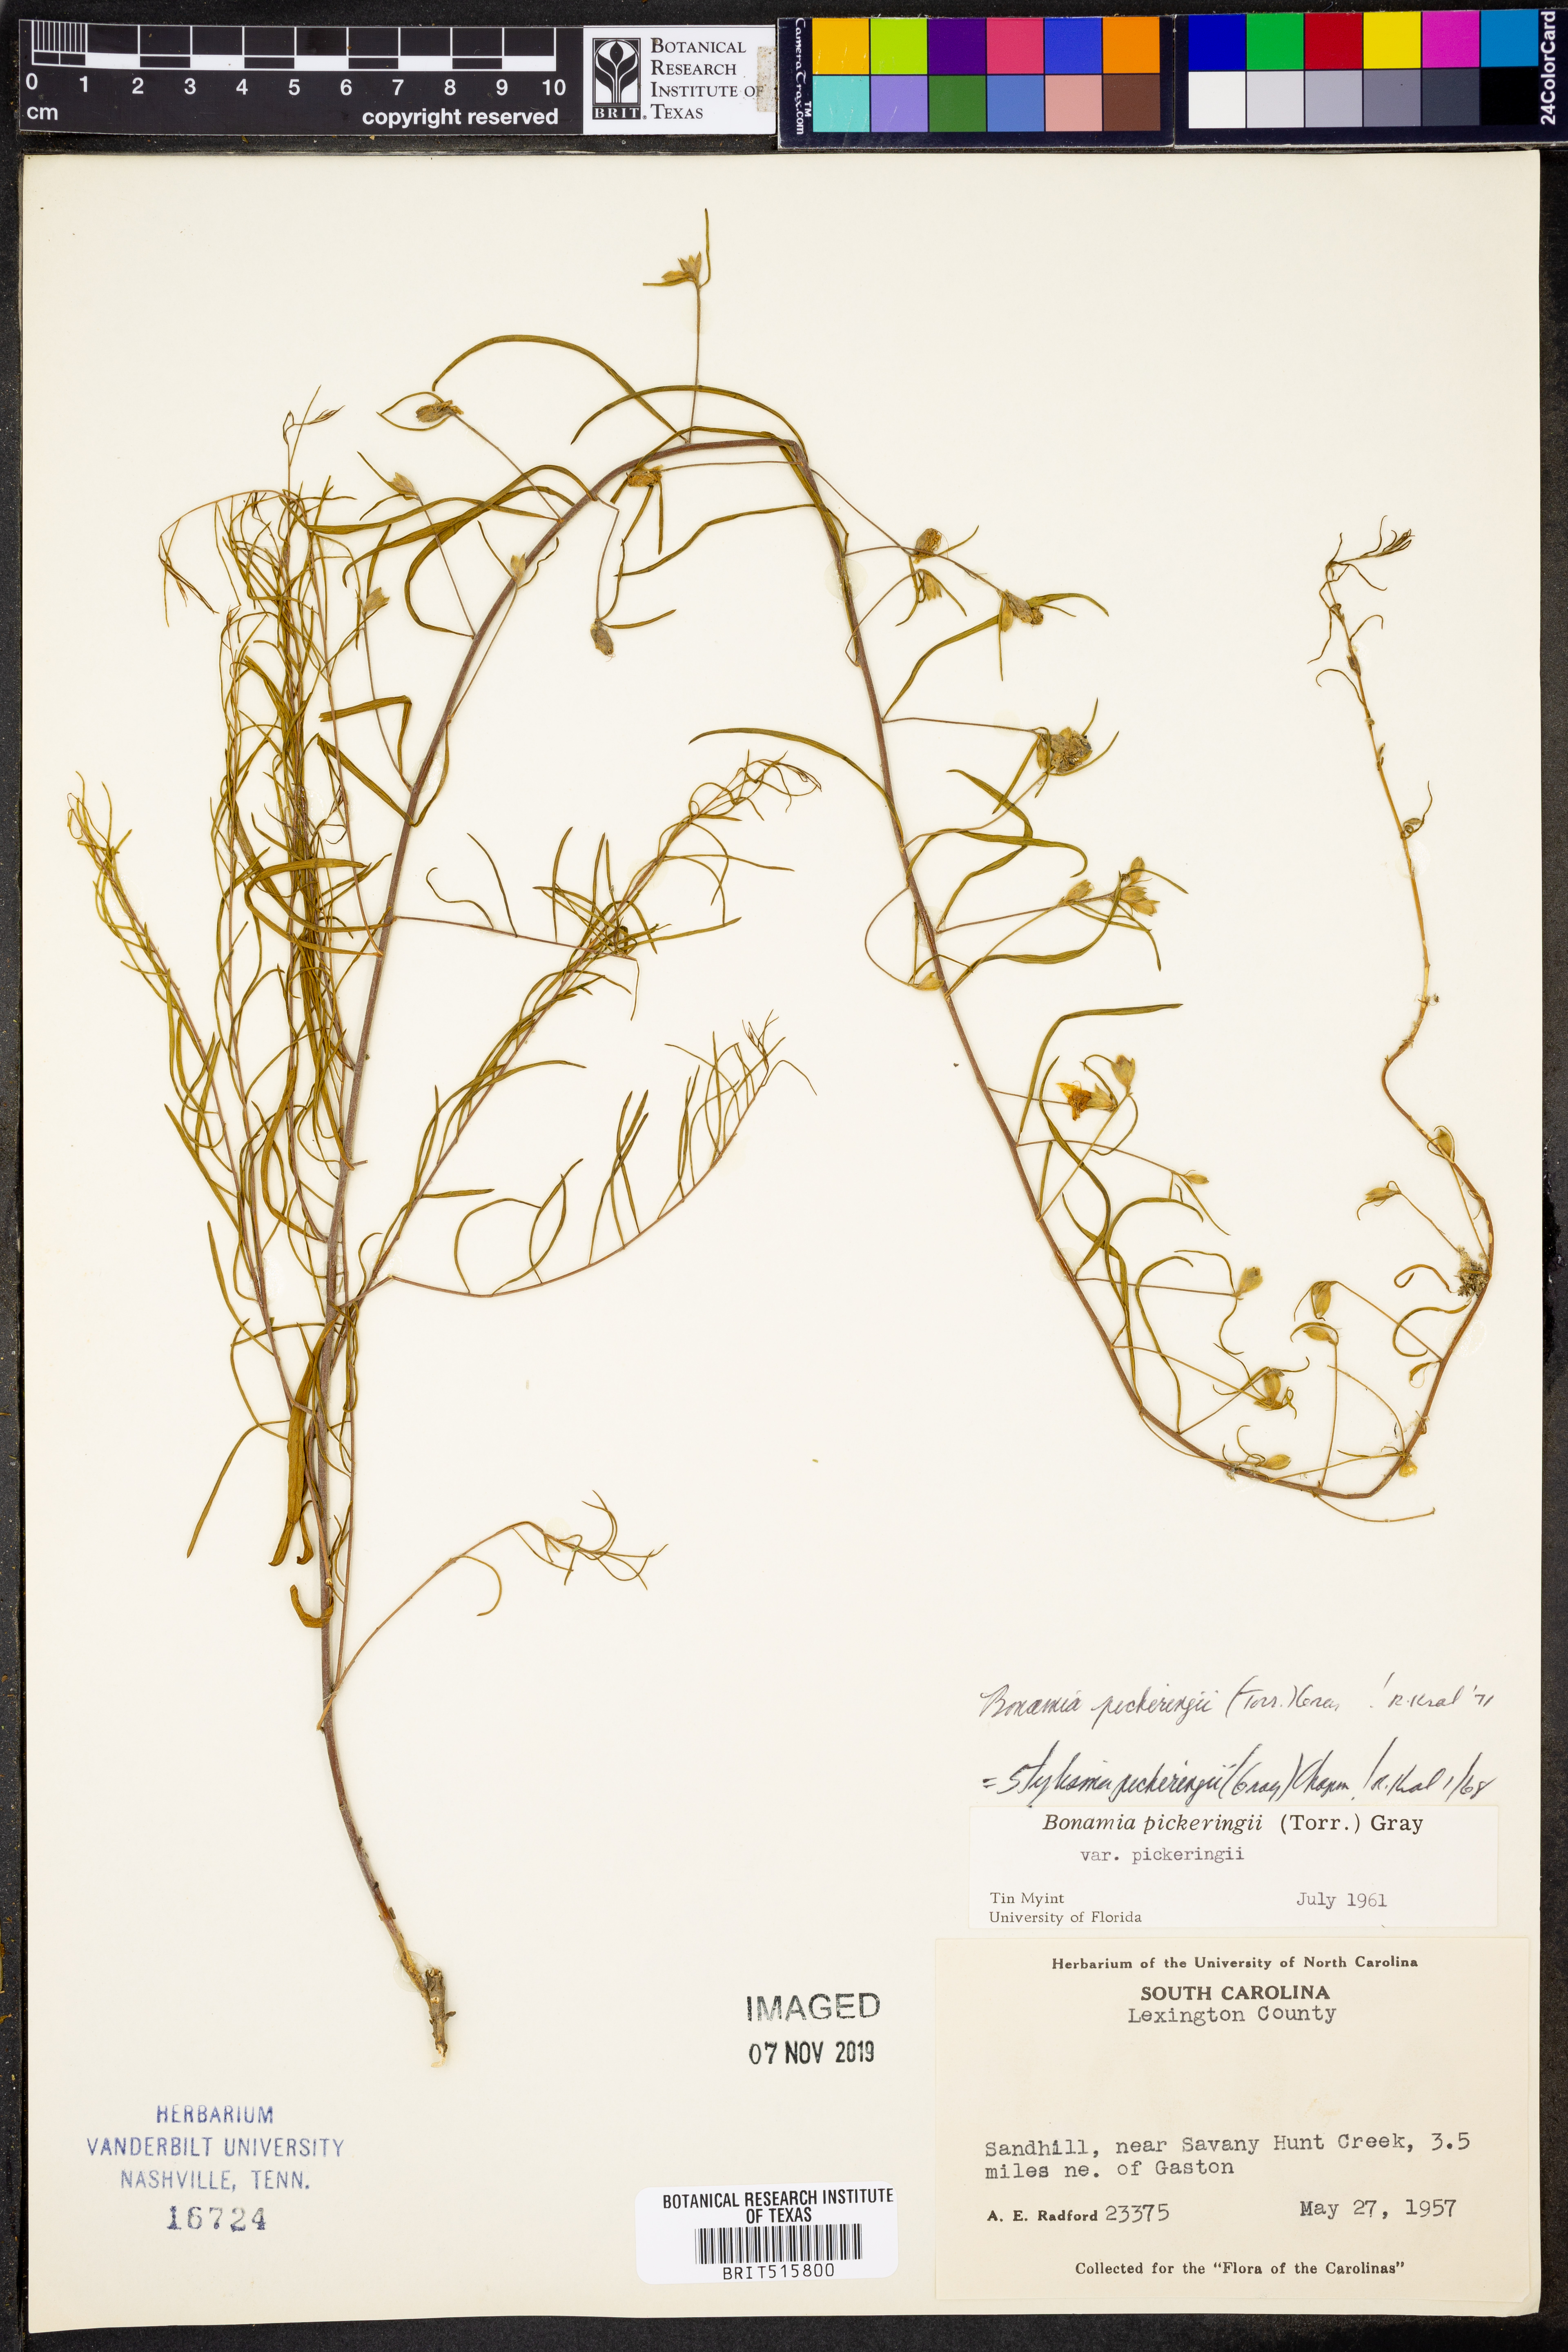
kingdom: Plantae
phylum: Tracheophyta
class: Magnoliopsida
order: Solanales
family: Convolvulaceae
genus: Stylisma
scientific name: Stylisma pickeringii
